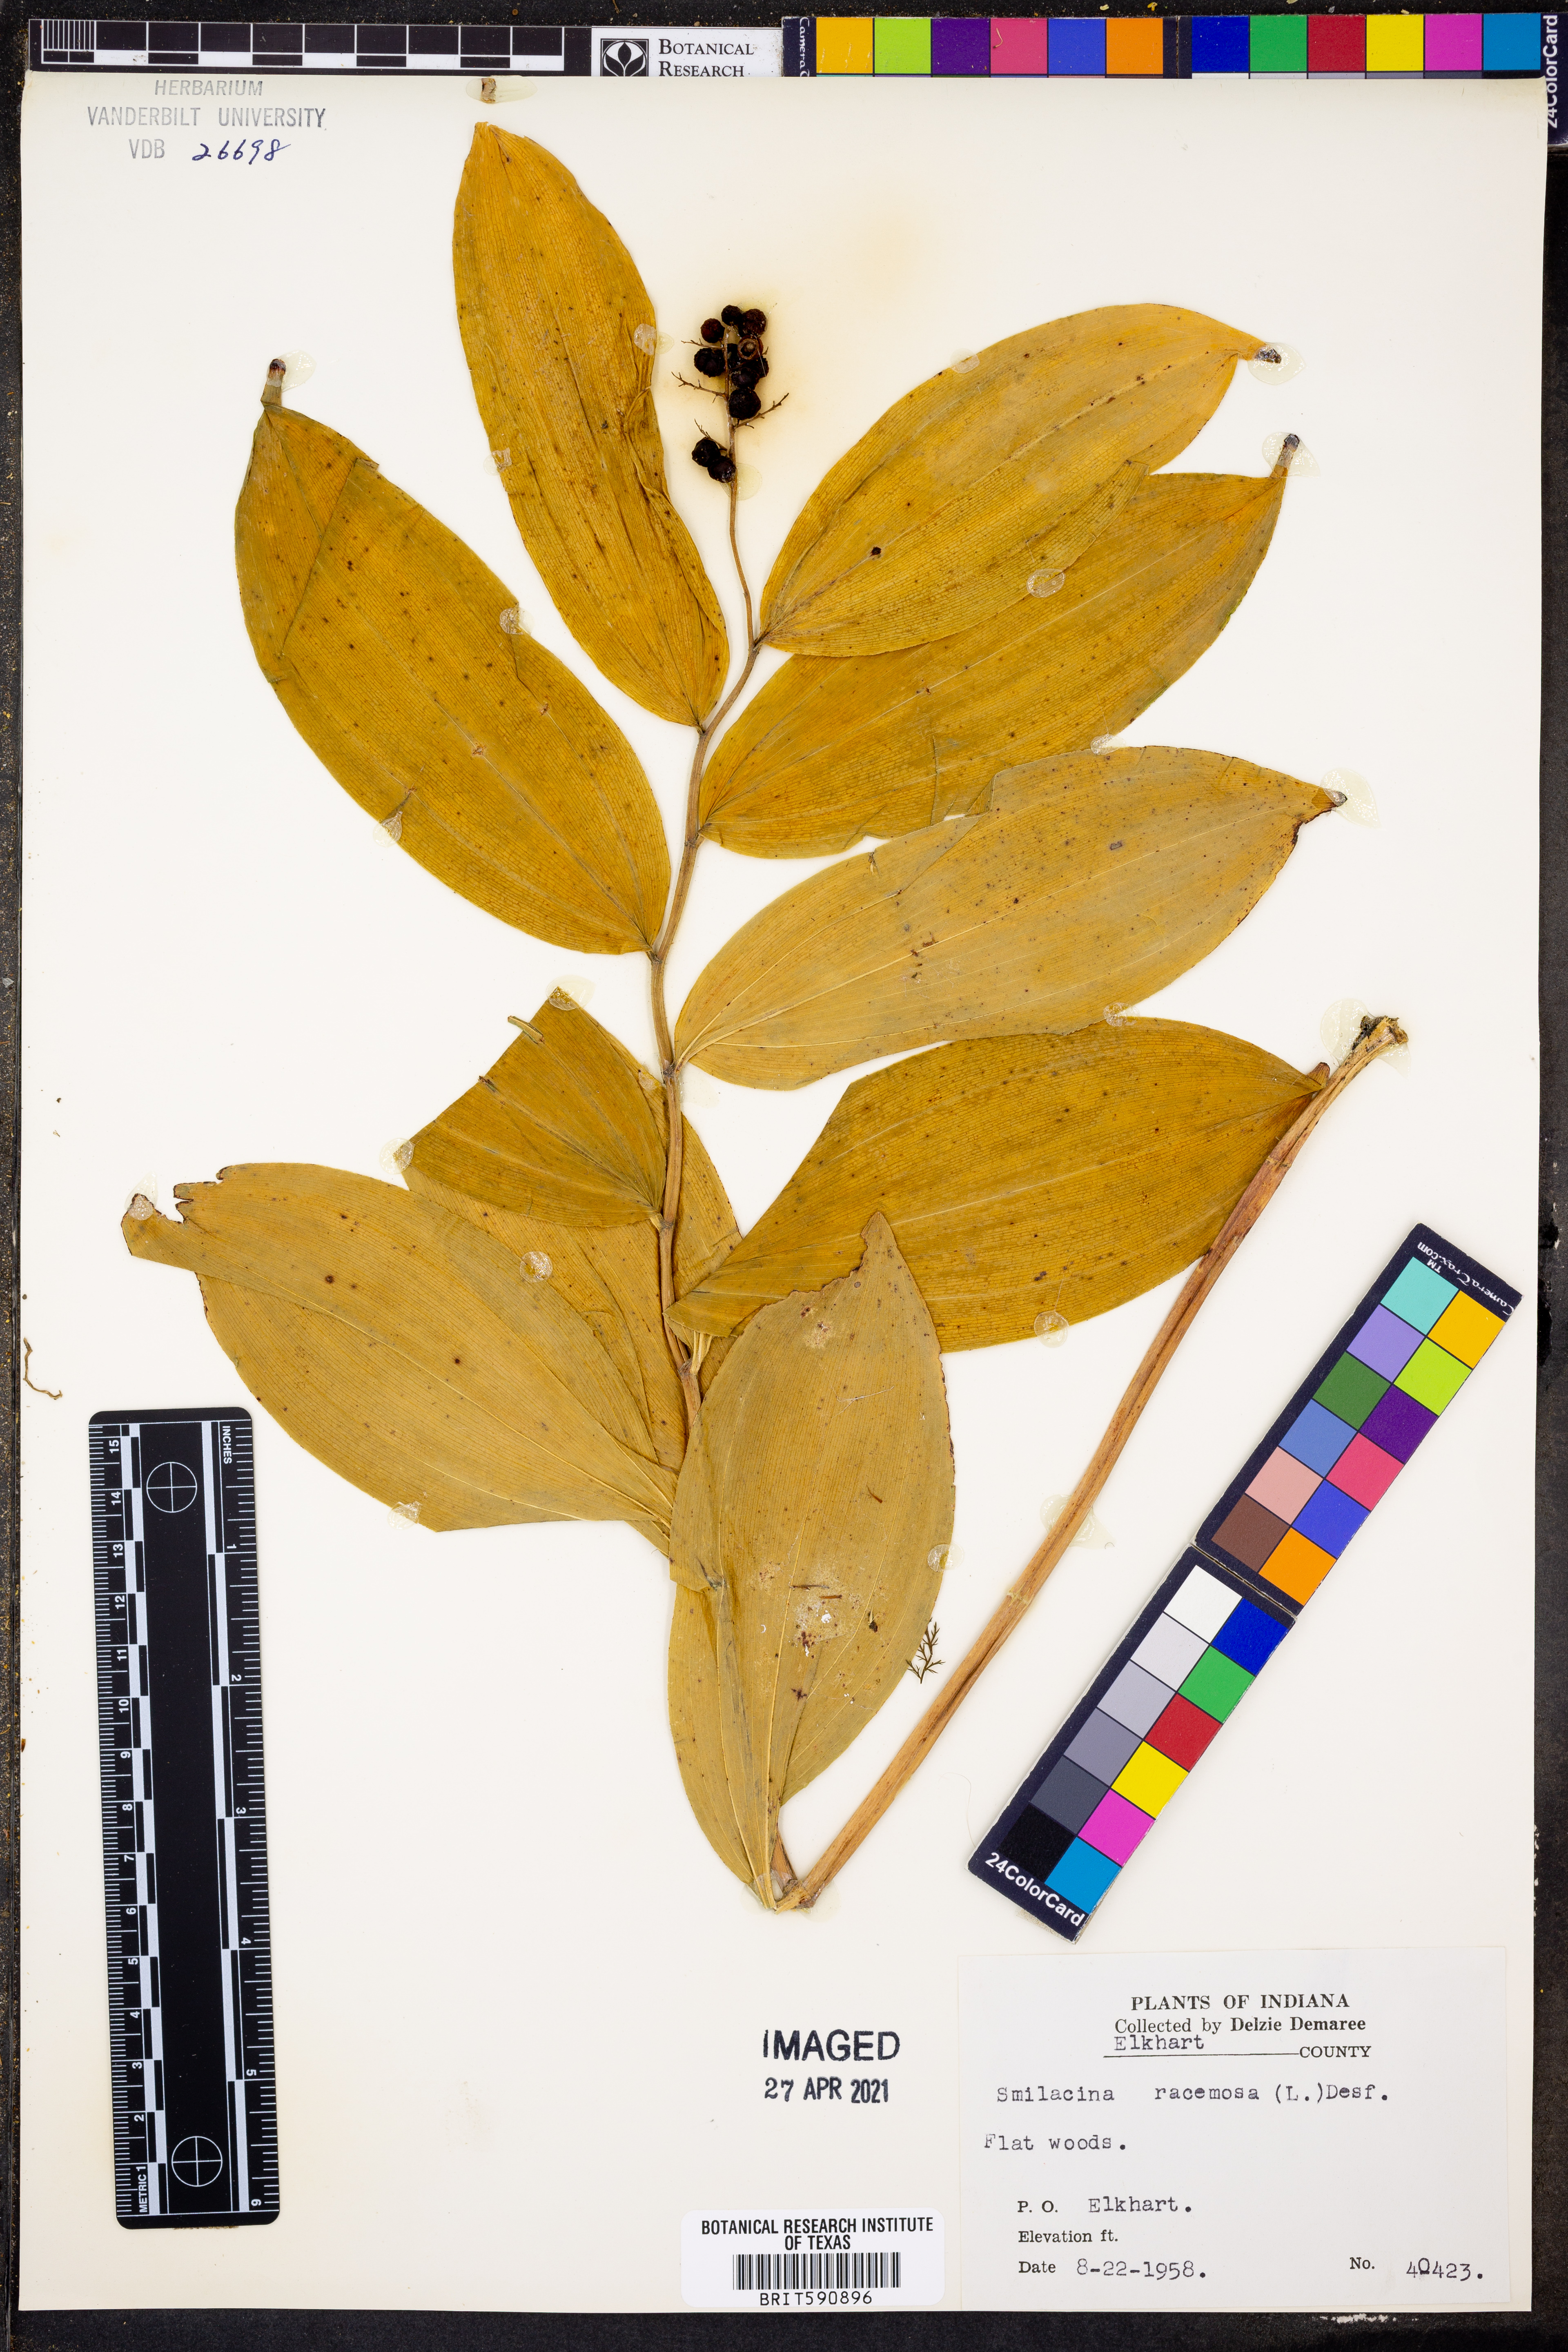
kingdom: Plantae
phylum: Tracheophyta
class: Liliopsida
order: Asparagales
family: Asparagaceae
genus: Maianthemum
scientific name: Maianthemum racemosum
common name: False spikenard
